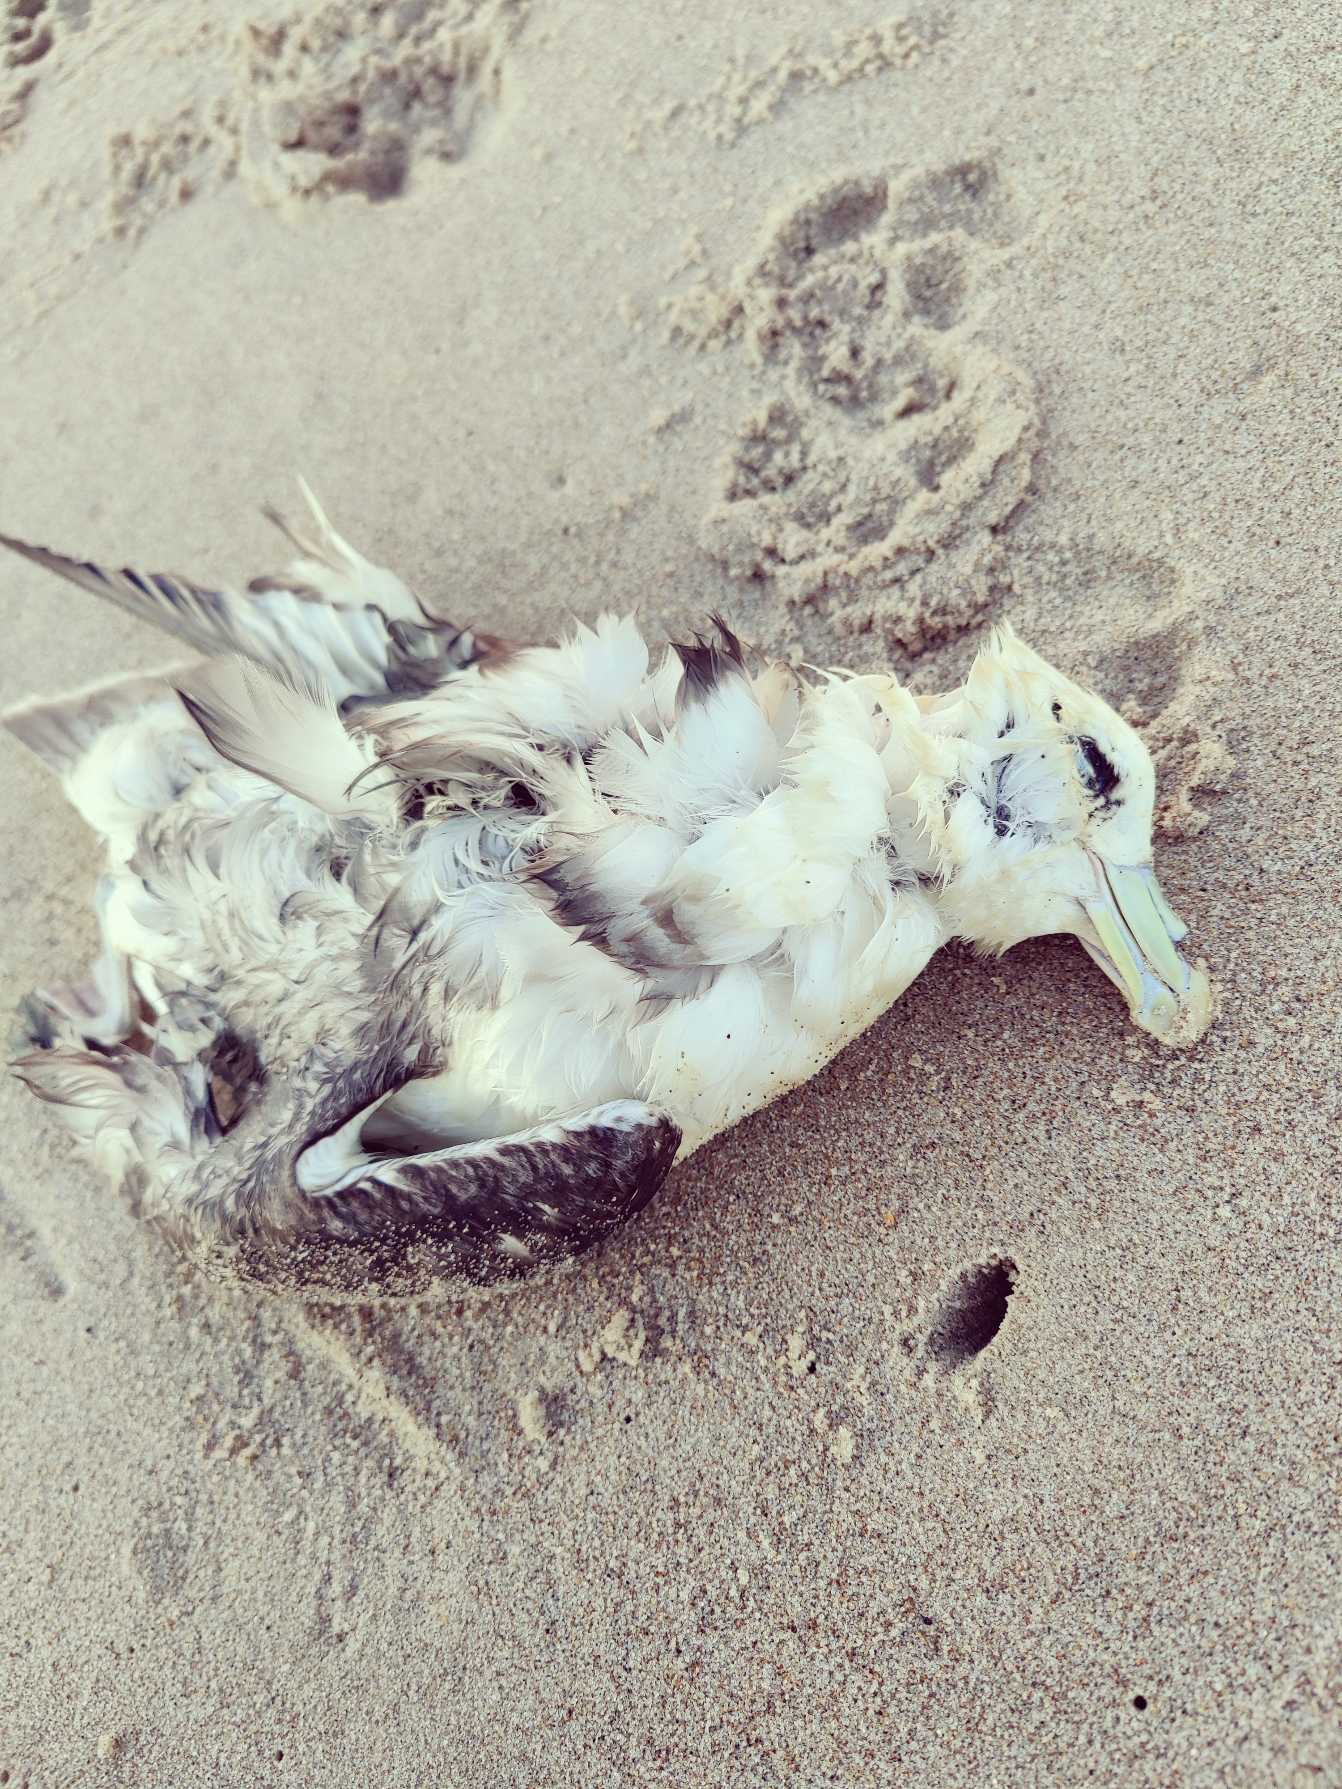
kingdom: Animalia
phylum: Chordata
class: Aves
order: Procellariiformes
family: Procellariidae
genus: Fulmarus
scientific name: Fulmarus glacialis
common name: Mallemuk
